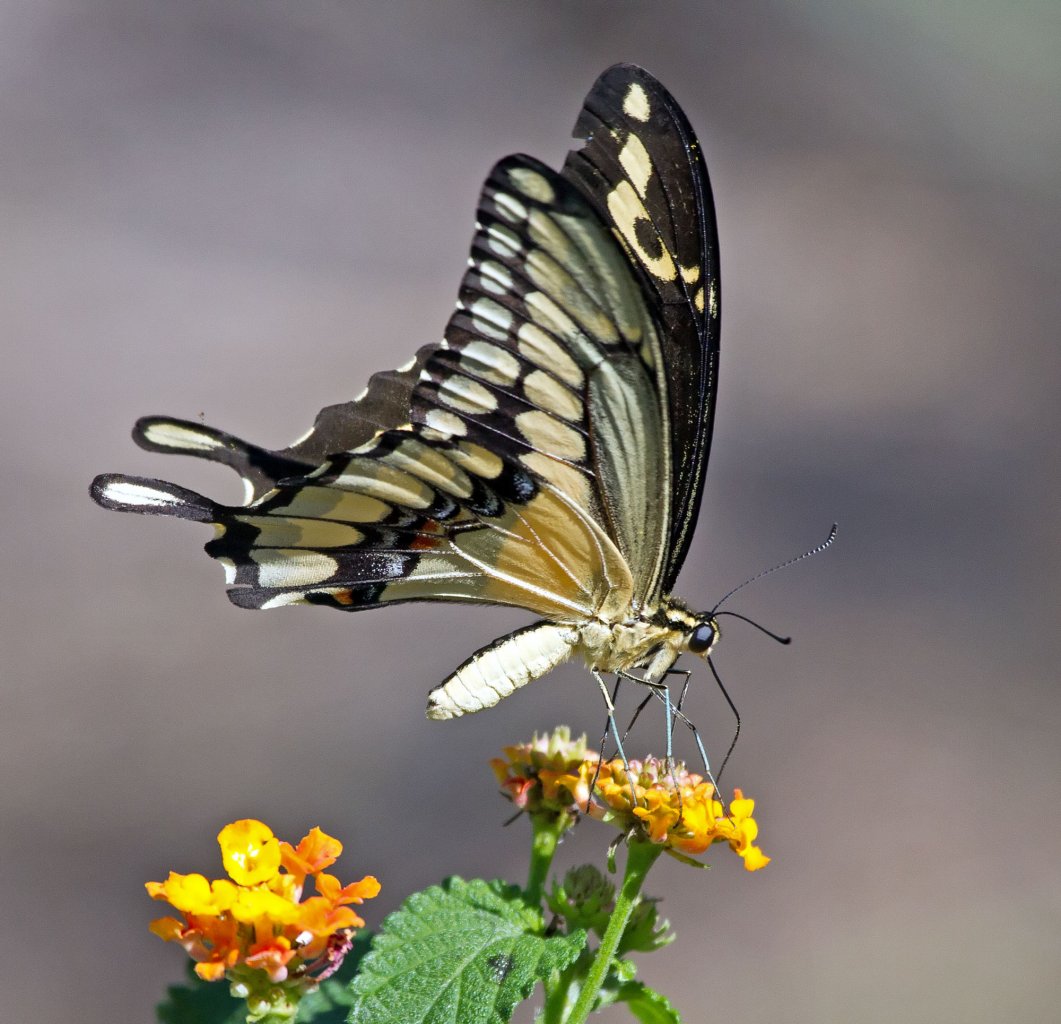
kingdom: Animalia
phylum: Arthropoda
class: Insecta
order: Lepidoptera
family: Papilionidae
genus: Papilio
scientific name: Papilio rumiko
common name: Western Giant Swallowtail
